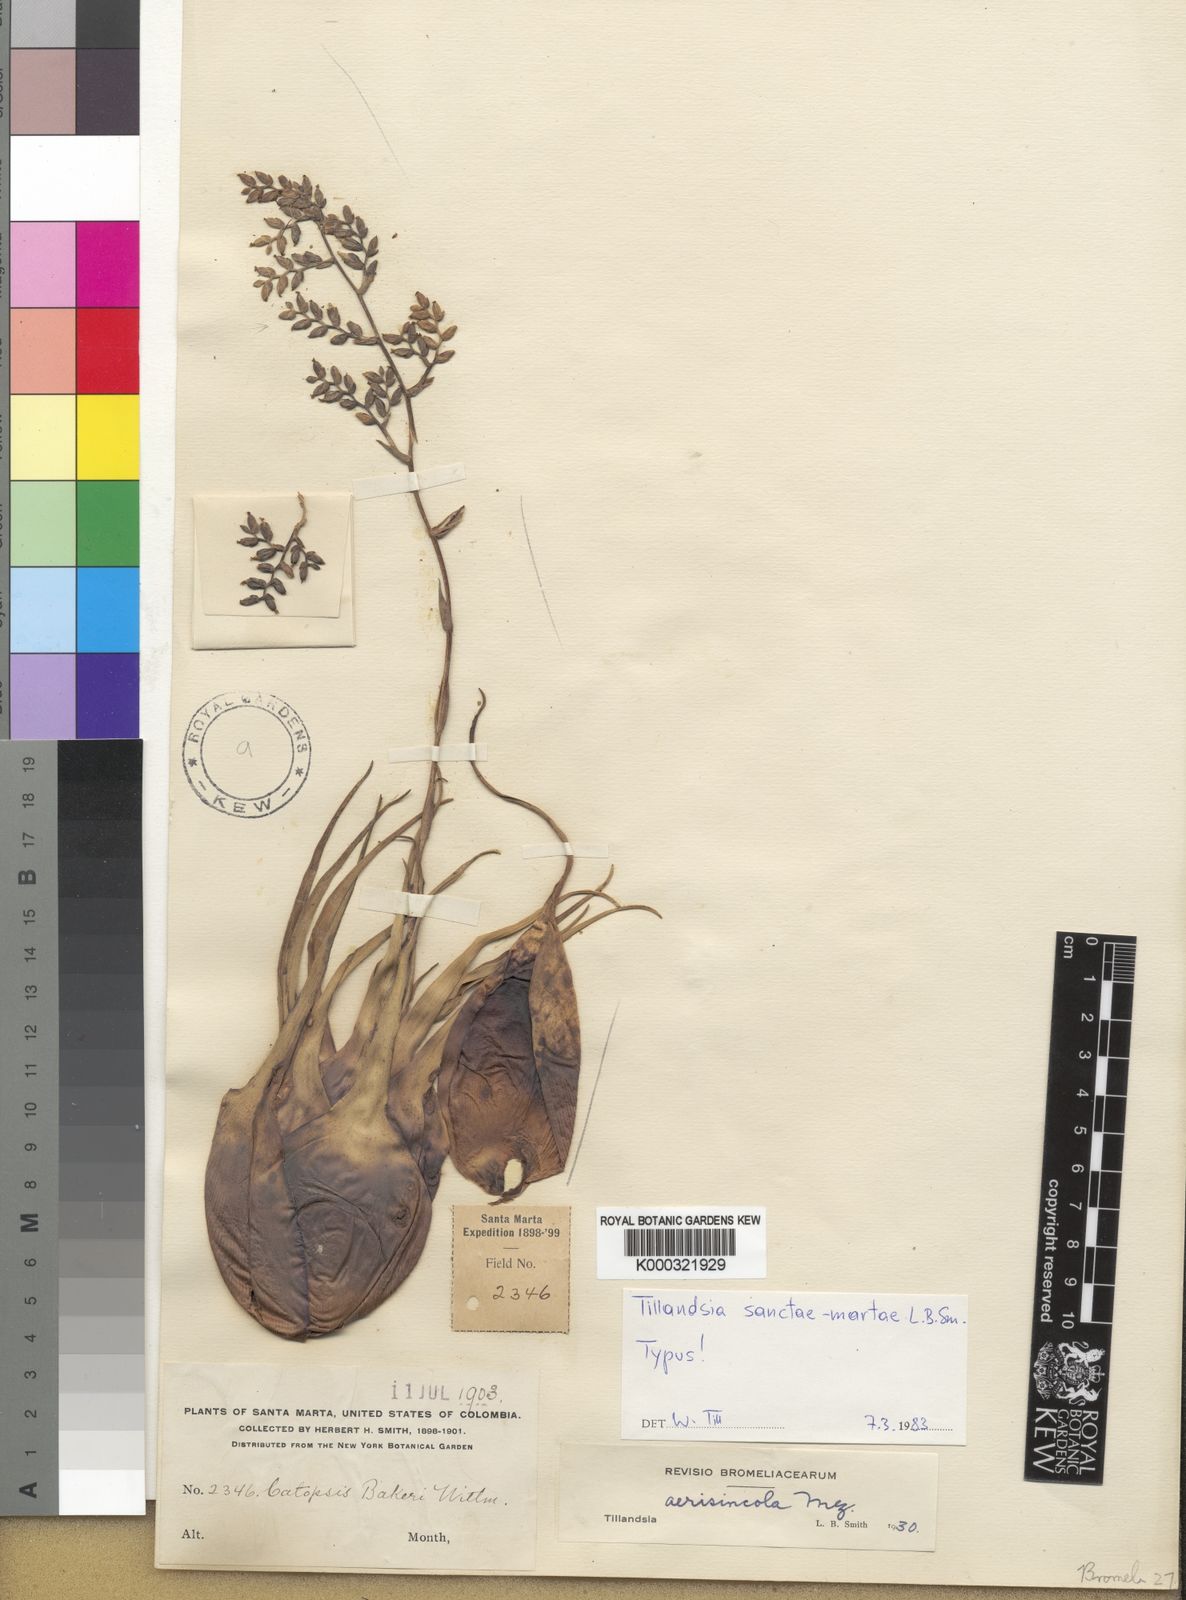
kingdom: Plantae
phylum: Tracheophyta
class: Liliopsida
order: Poales
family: Bromeliaceae
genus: Racinaea
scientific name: Racinaea sanctae-martae
